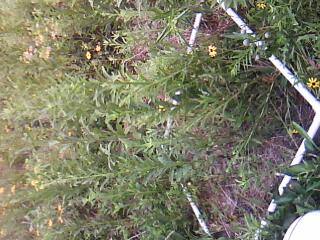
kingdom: Plantae
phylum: Tracheophyta
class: Magnoliopsida
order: Asterales
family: Asteraceae
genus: Solidago
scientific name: Solidago canadensis
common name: Canada goldenrod
